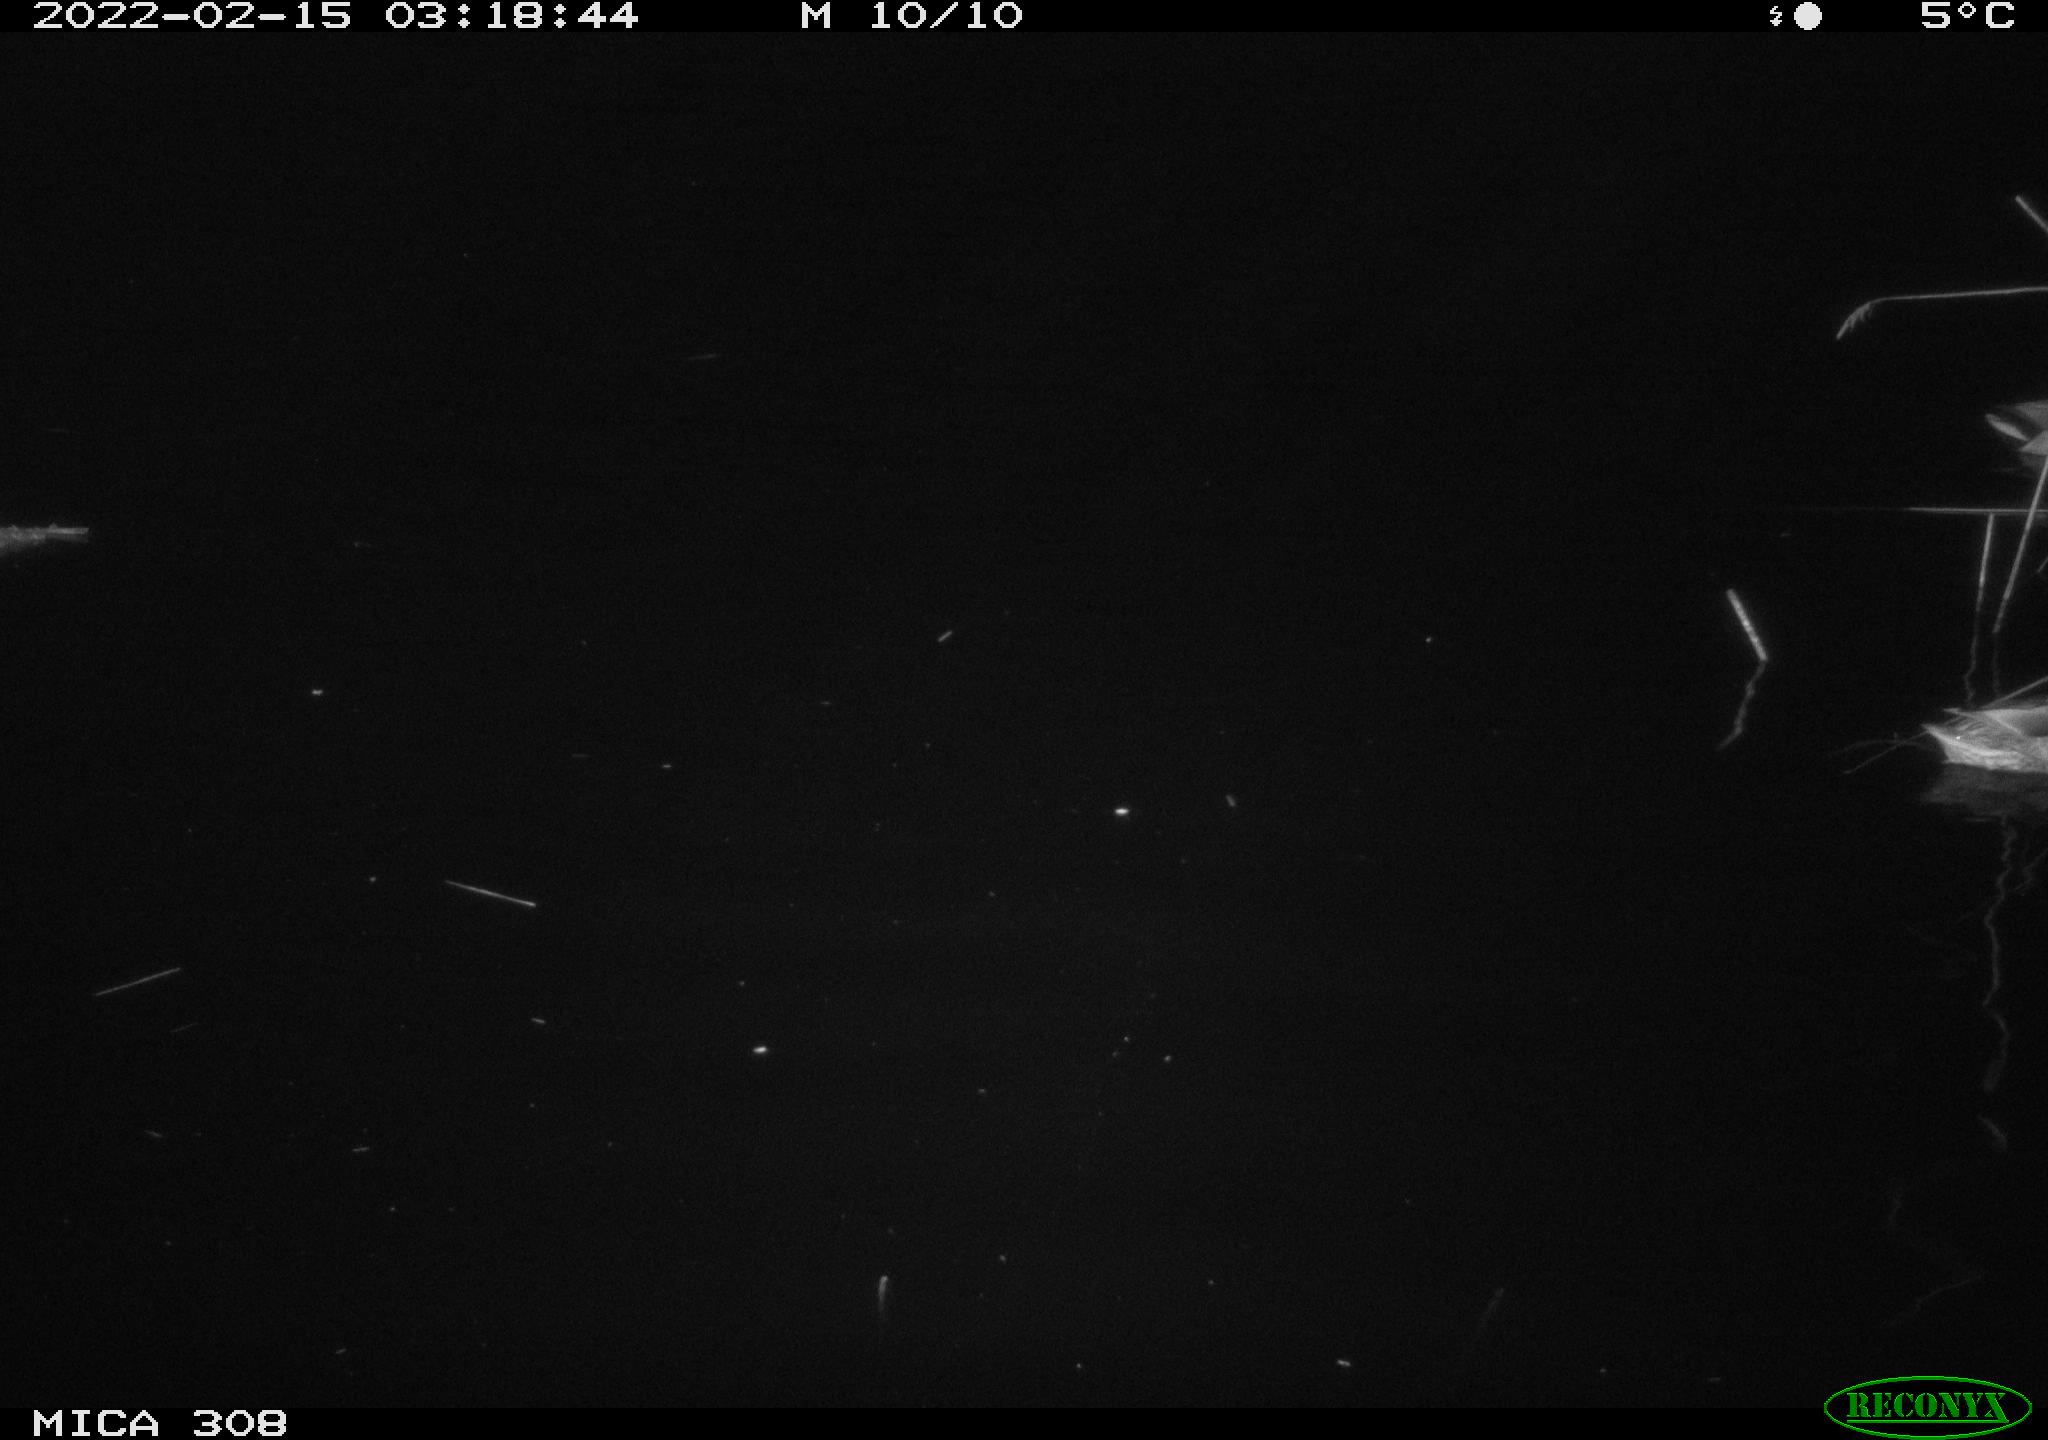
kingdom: Animalia
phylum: Chordata
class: Aves
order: Anseriformes
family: Anatidae
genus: Anas
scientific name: Anas platyrhynchos
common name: Mallard
